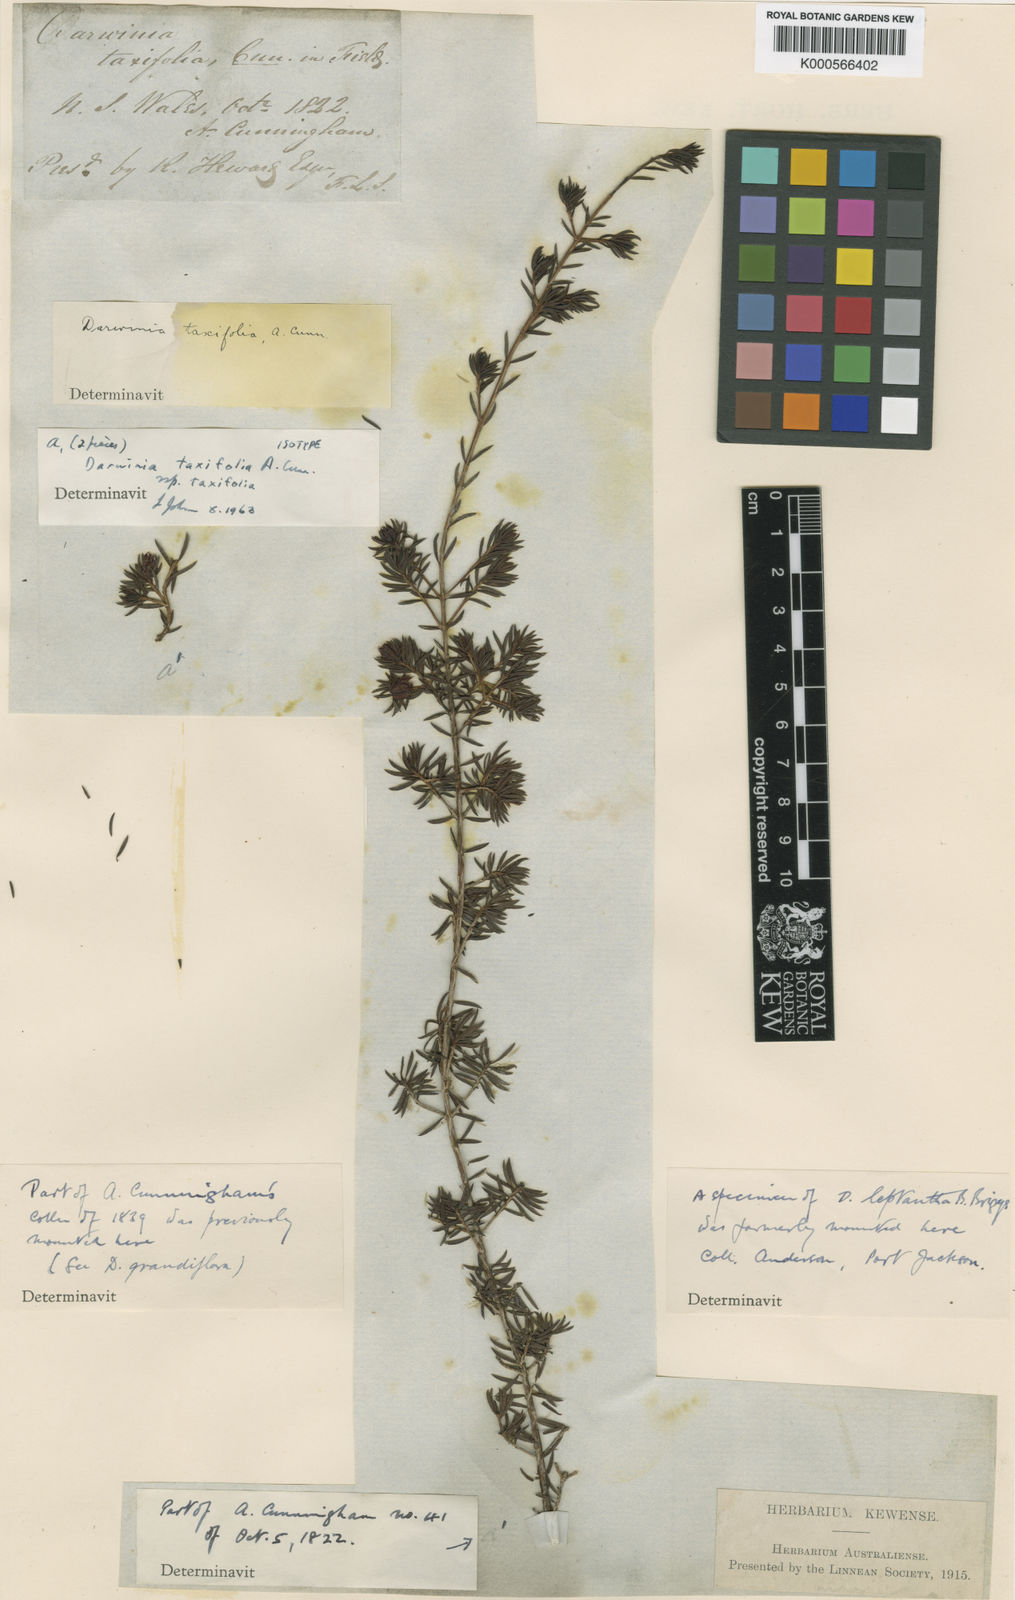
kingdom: Plantae
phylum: Tracheophyta
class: Magnoliopsida
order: Myrtales
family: Myrtaceae
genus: Darwinia
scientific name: Darwinia taxifolia
